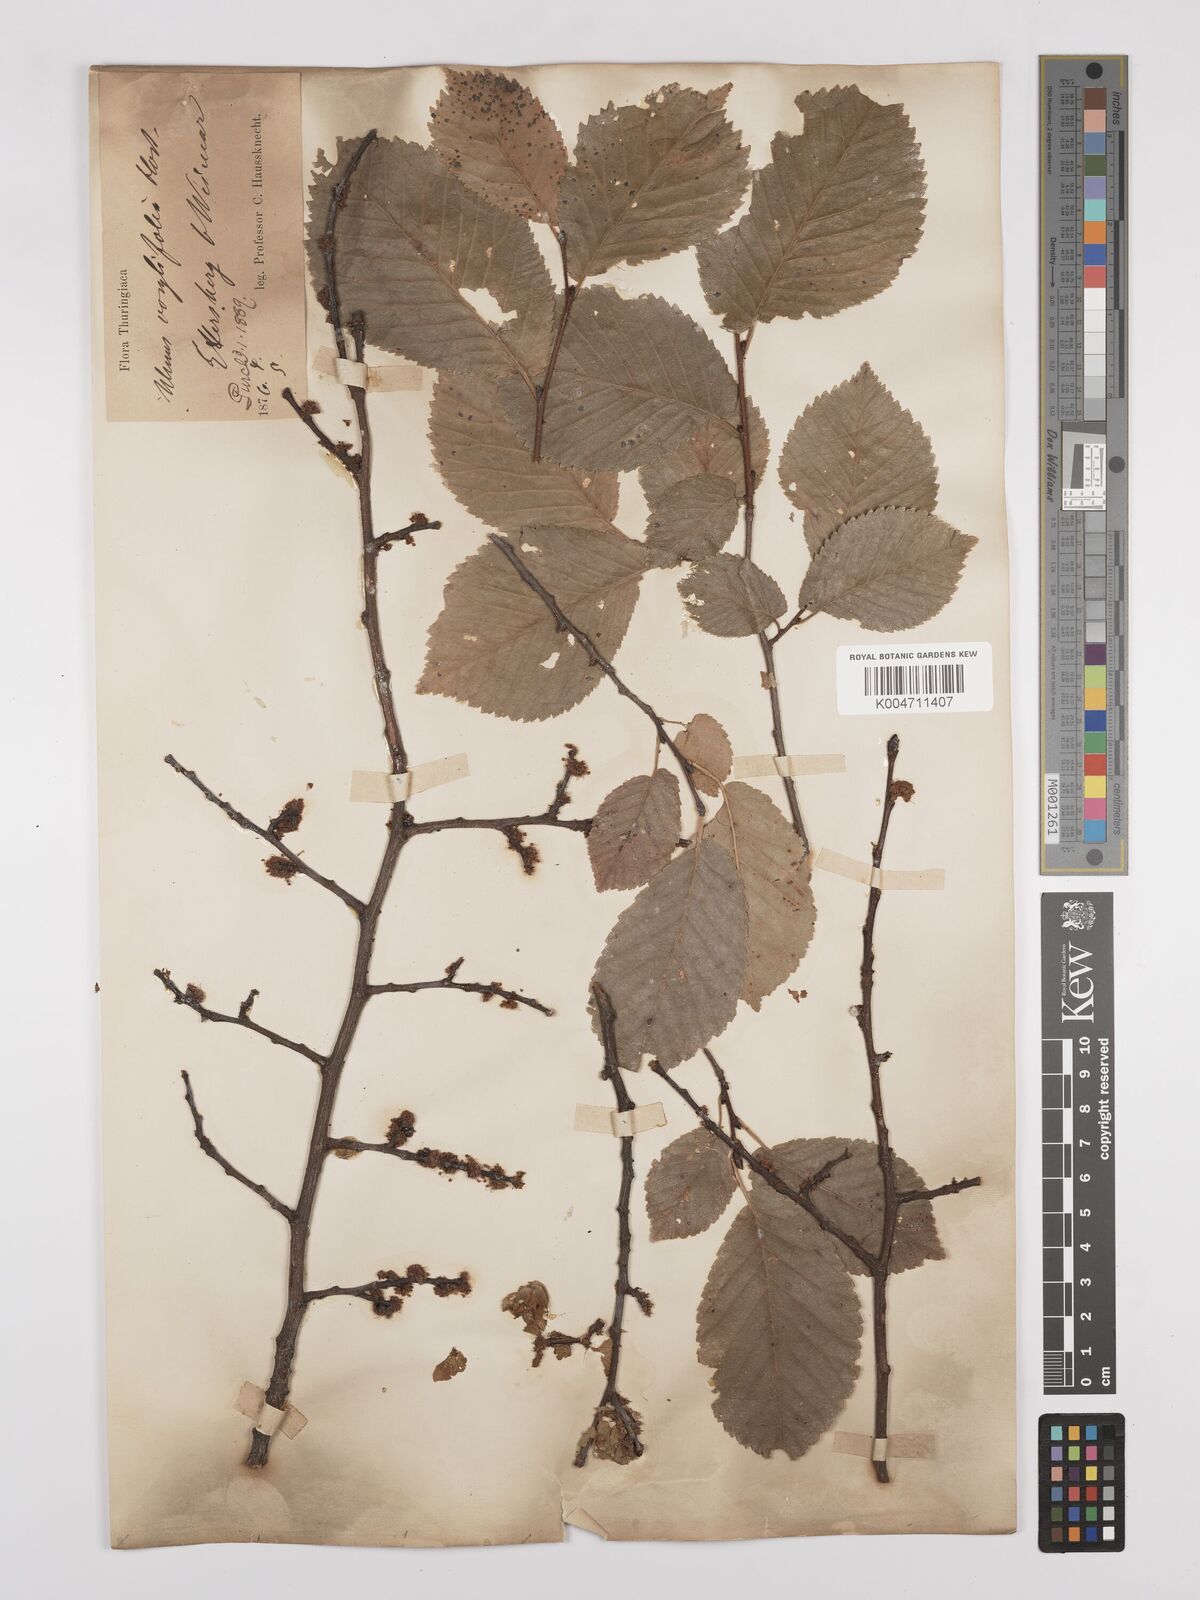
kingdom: Plantae
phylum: Tracheophyta
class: Magnoliopsida
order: Rosales
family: Ulmaceae
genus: Ulmus
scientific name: Ulmus minor
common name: Small-leaved elm
